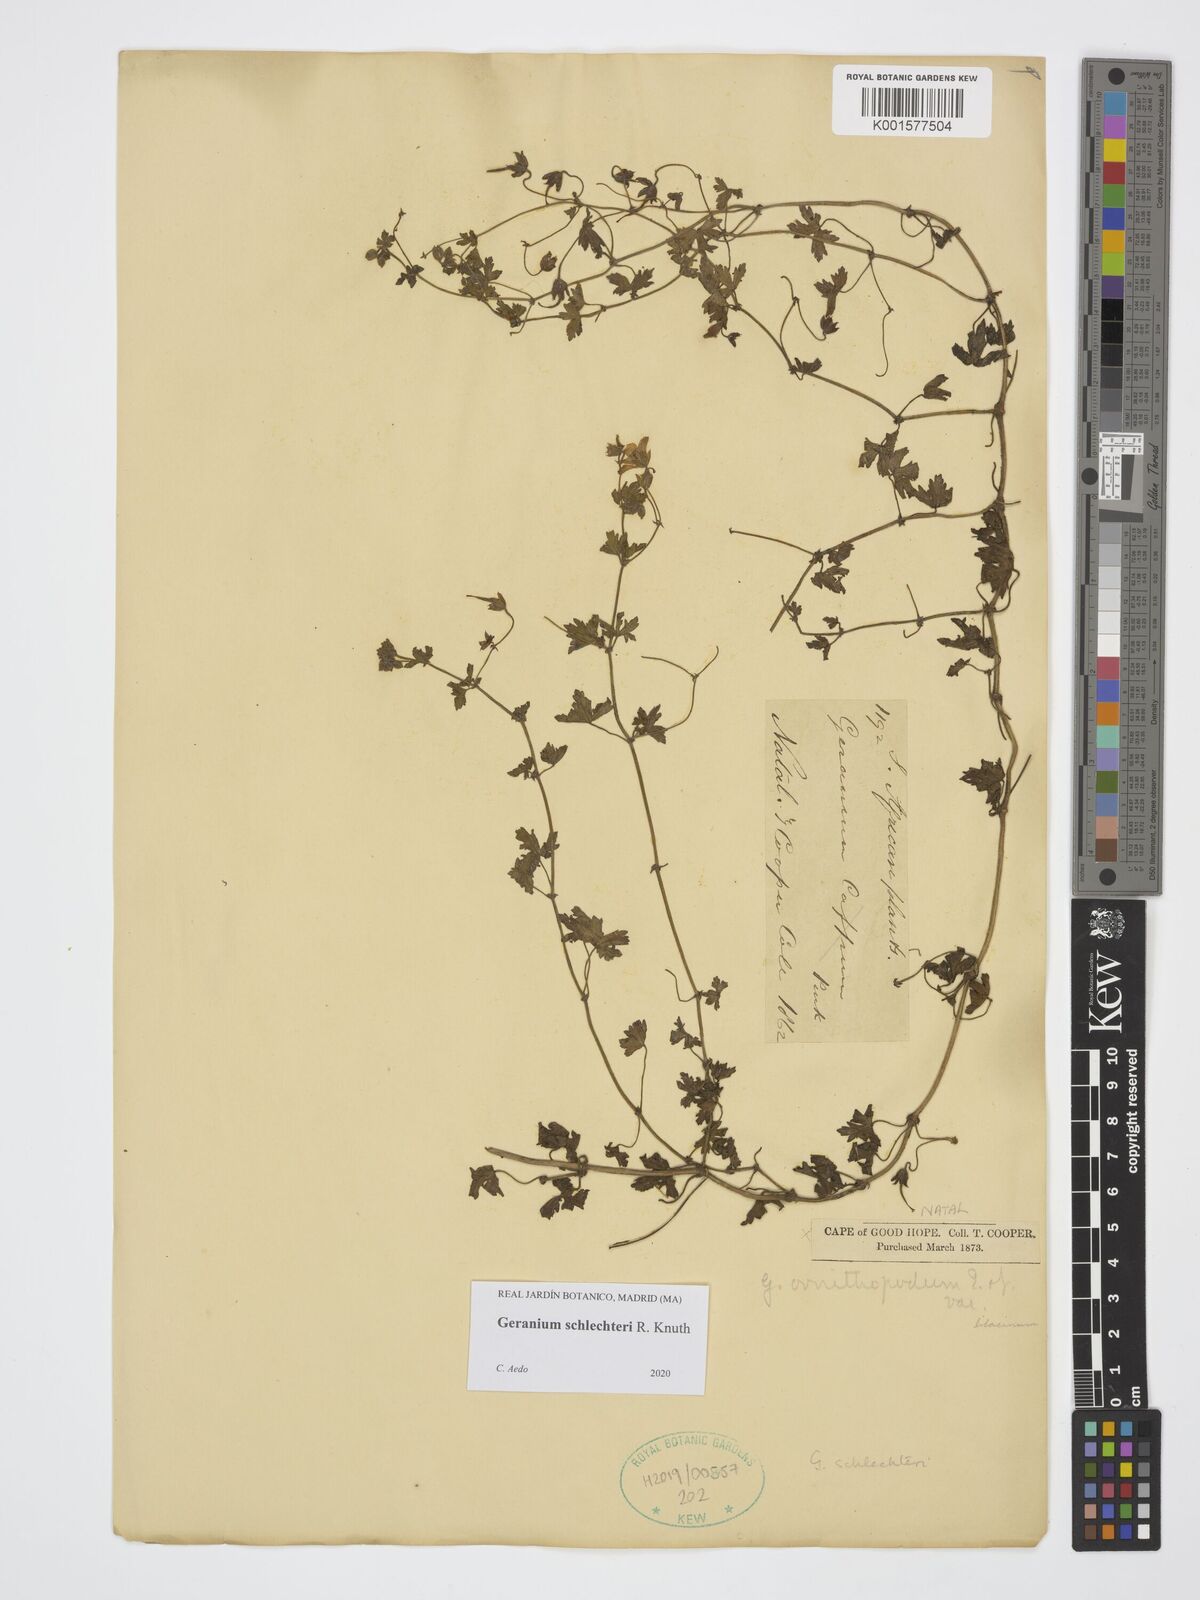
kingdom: Plantae
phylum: Tracheophyta
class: Magnoliopsida
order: Geraniales
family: Geraniaceae
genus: Geranium
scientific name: Geranium schlechteri
